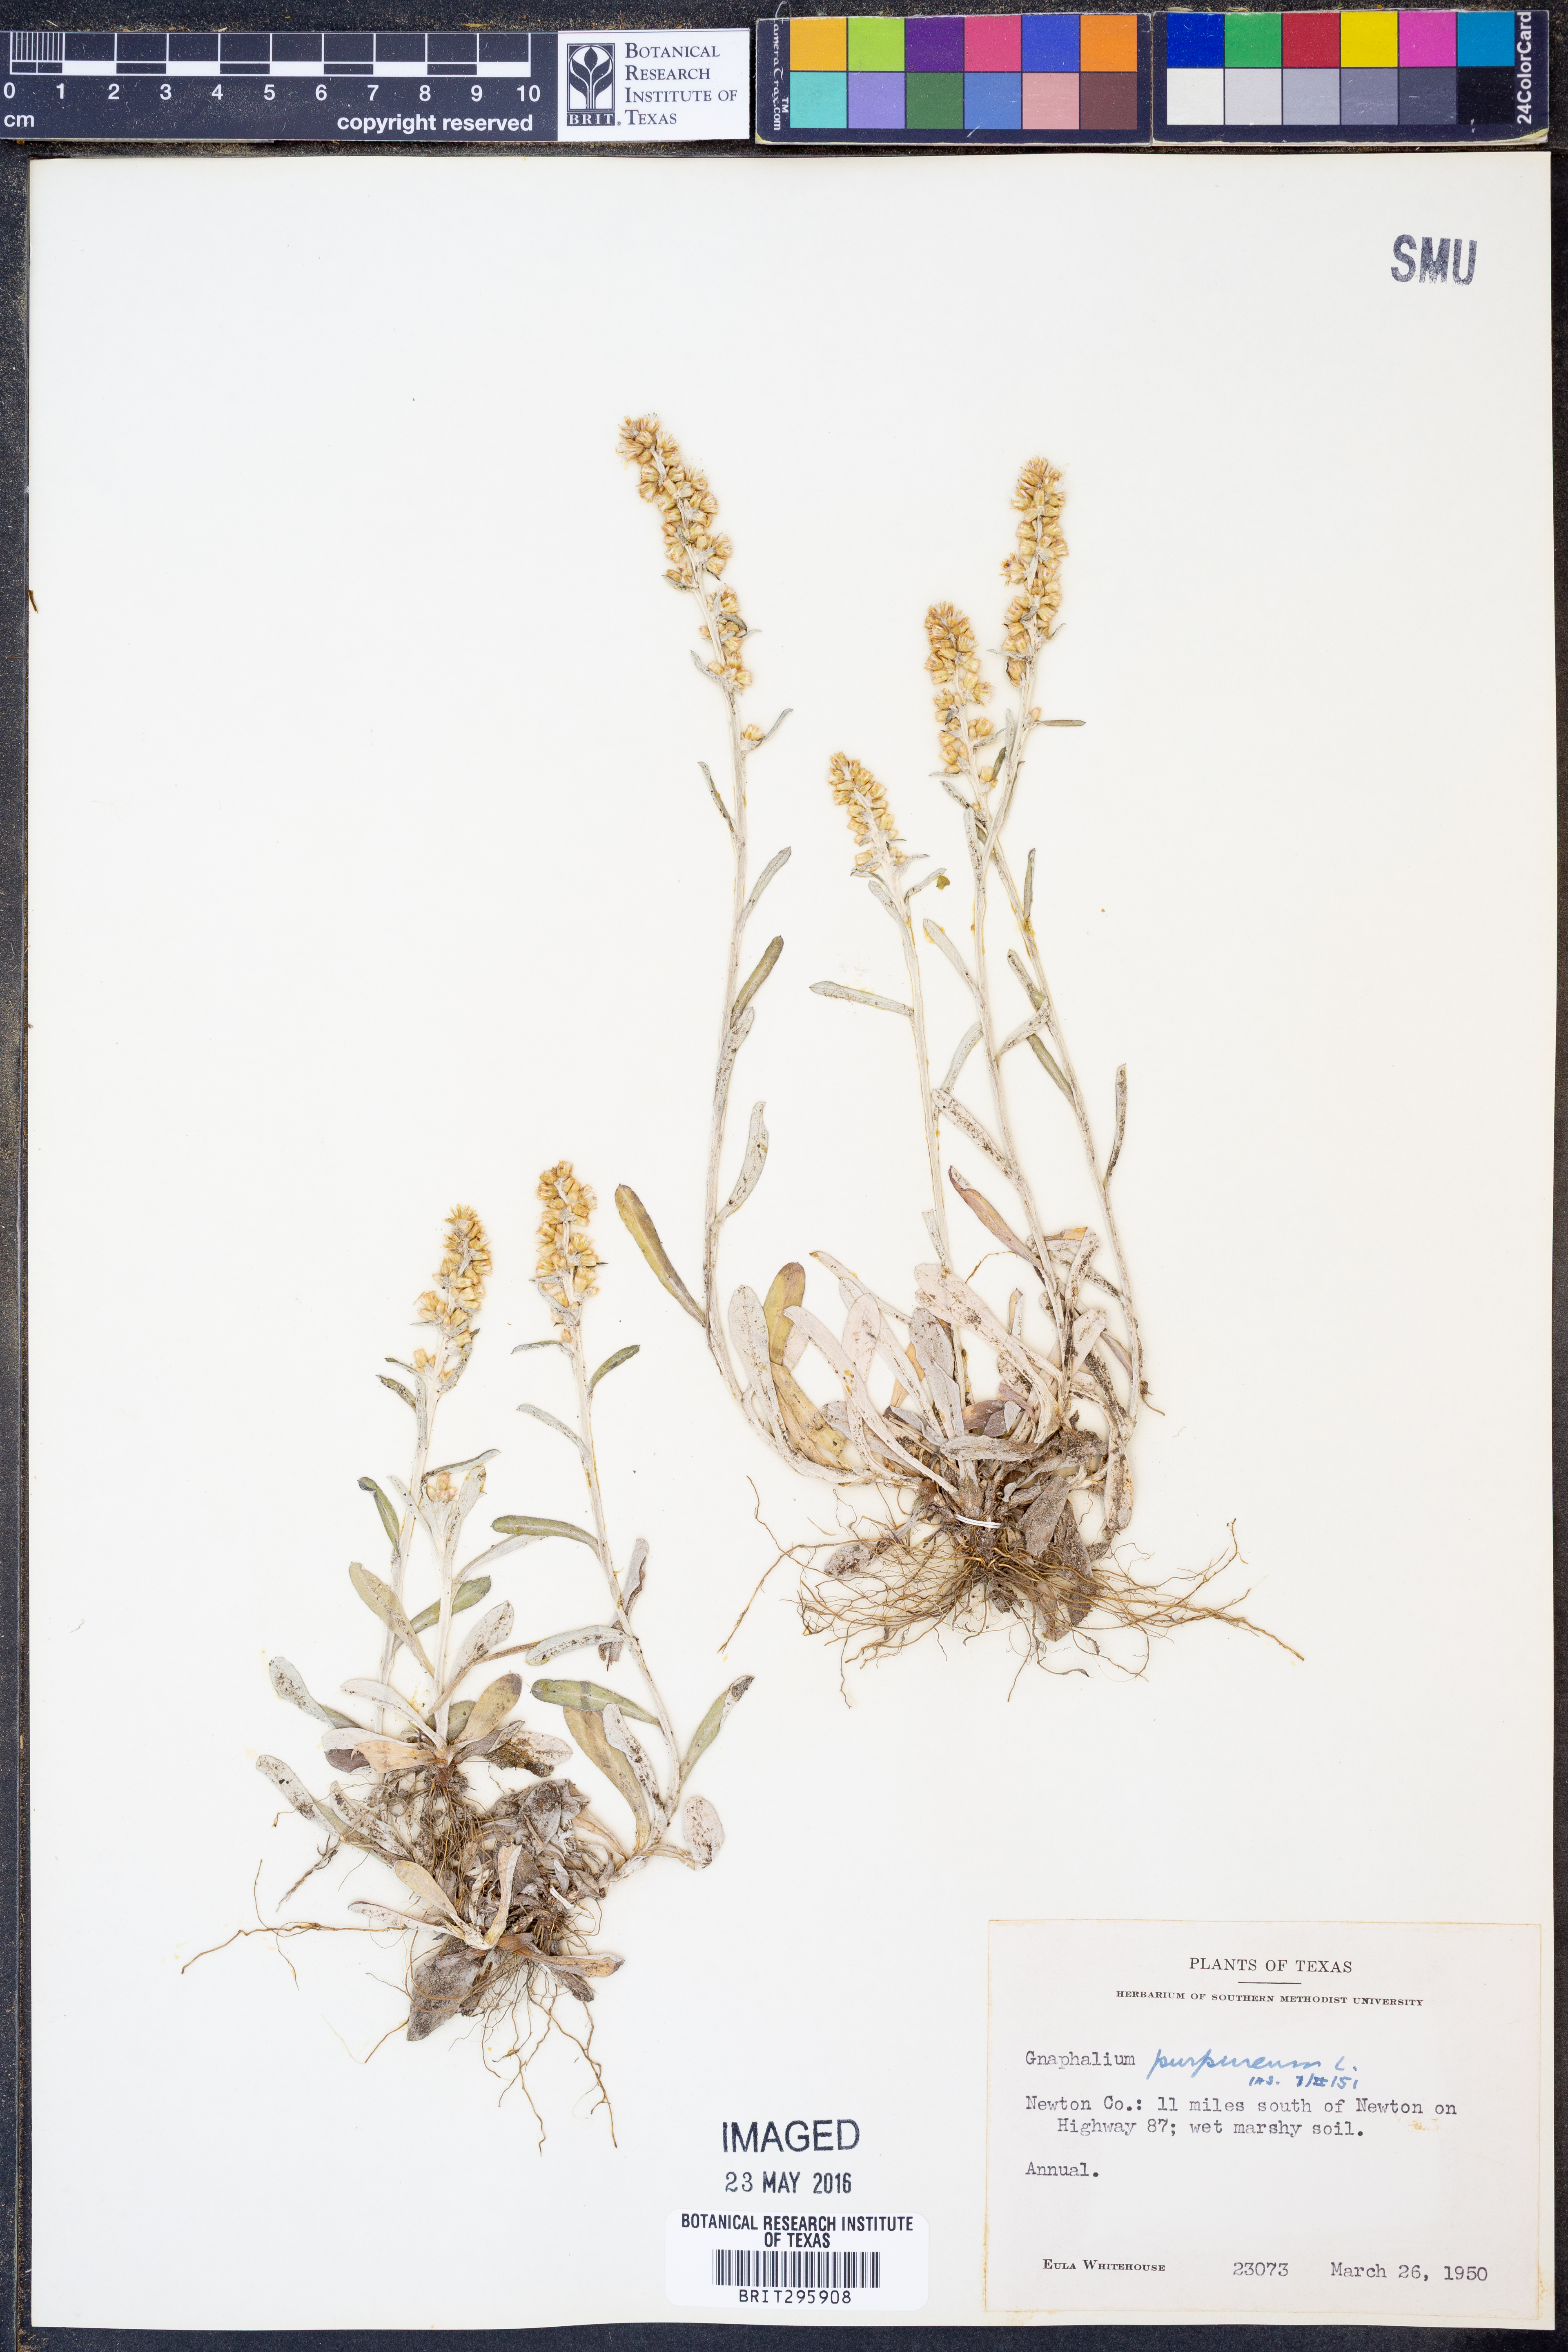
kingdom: Plantae
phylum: Tracheophyta
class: Magnoliopsida
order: Asterales
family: Asteraceae
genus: Gamochaeta
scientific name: Gamochaeta purpurea
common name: Purple cudweed
